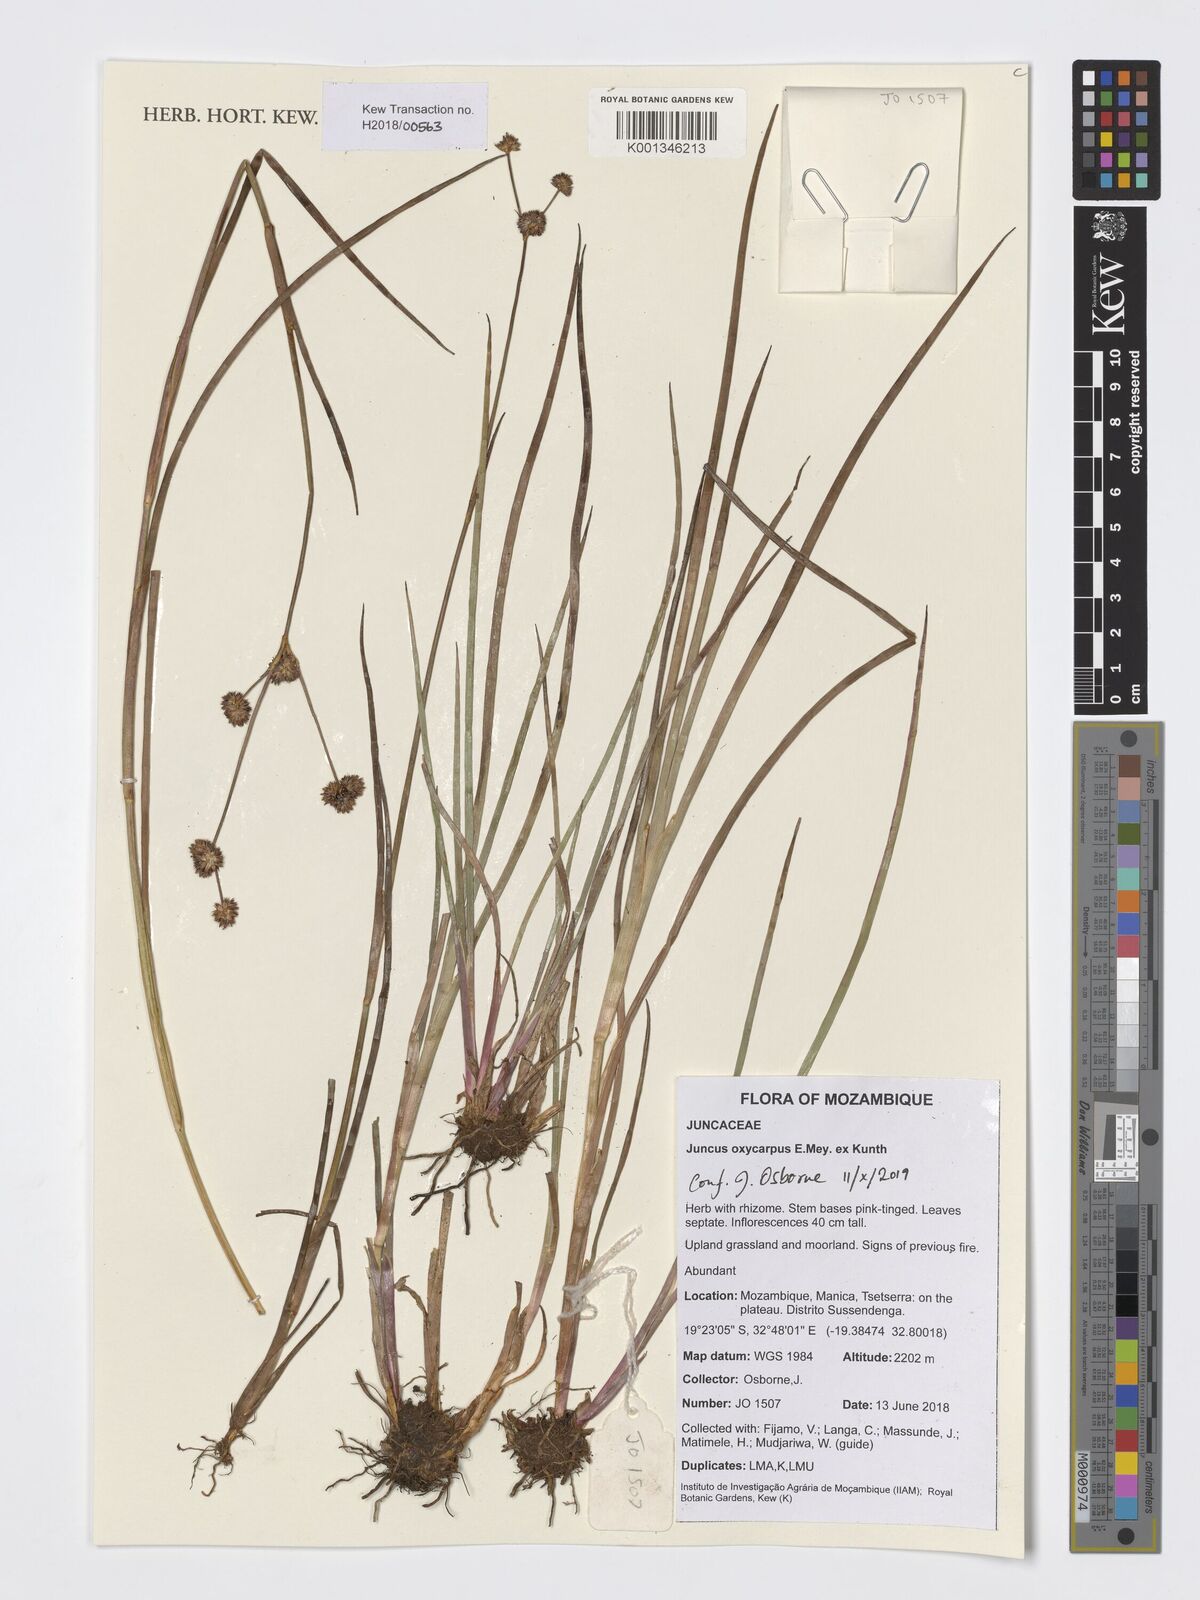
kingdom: Plantae
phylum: Tracheophyta
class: Liliopsida
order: Poales
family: Juncaceae
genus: Juncus
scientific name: Juncus oxycarpus
